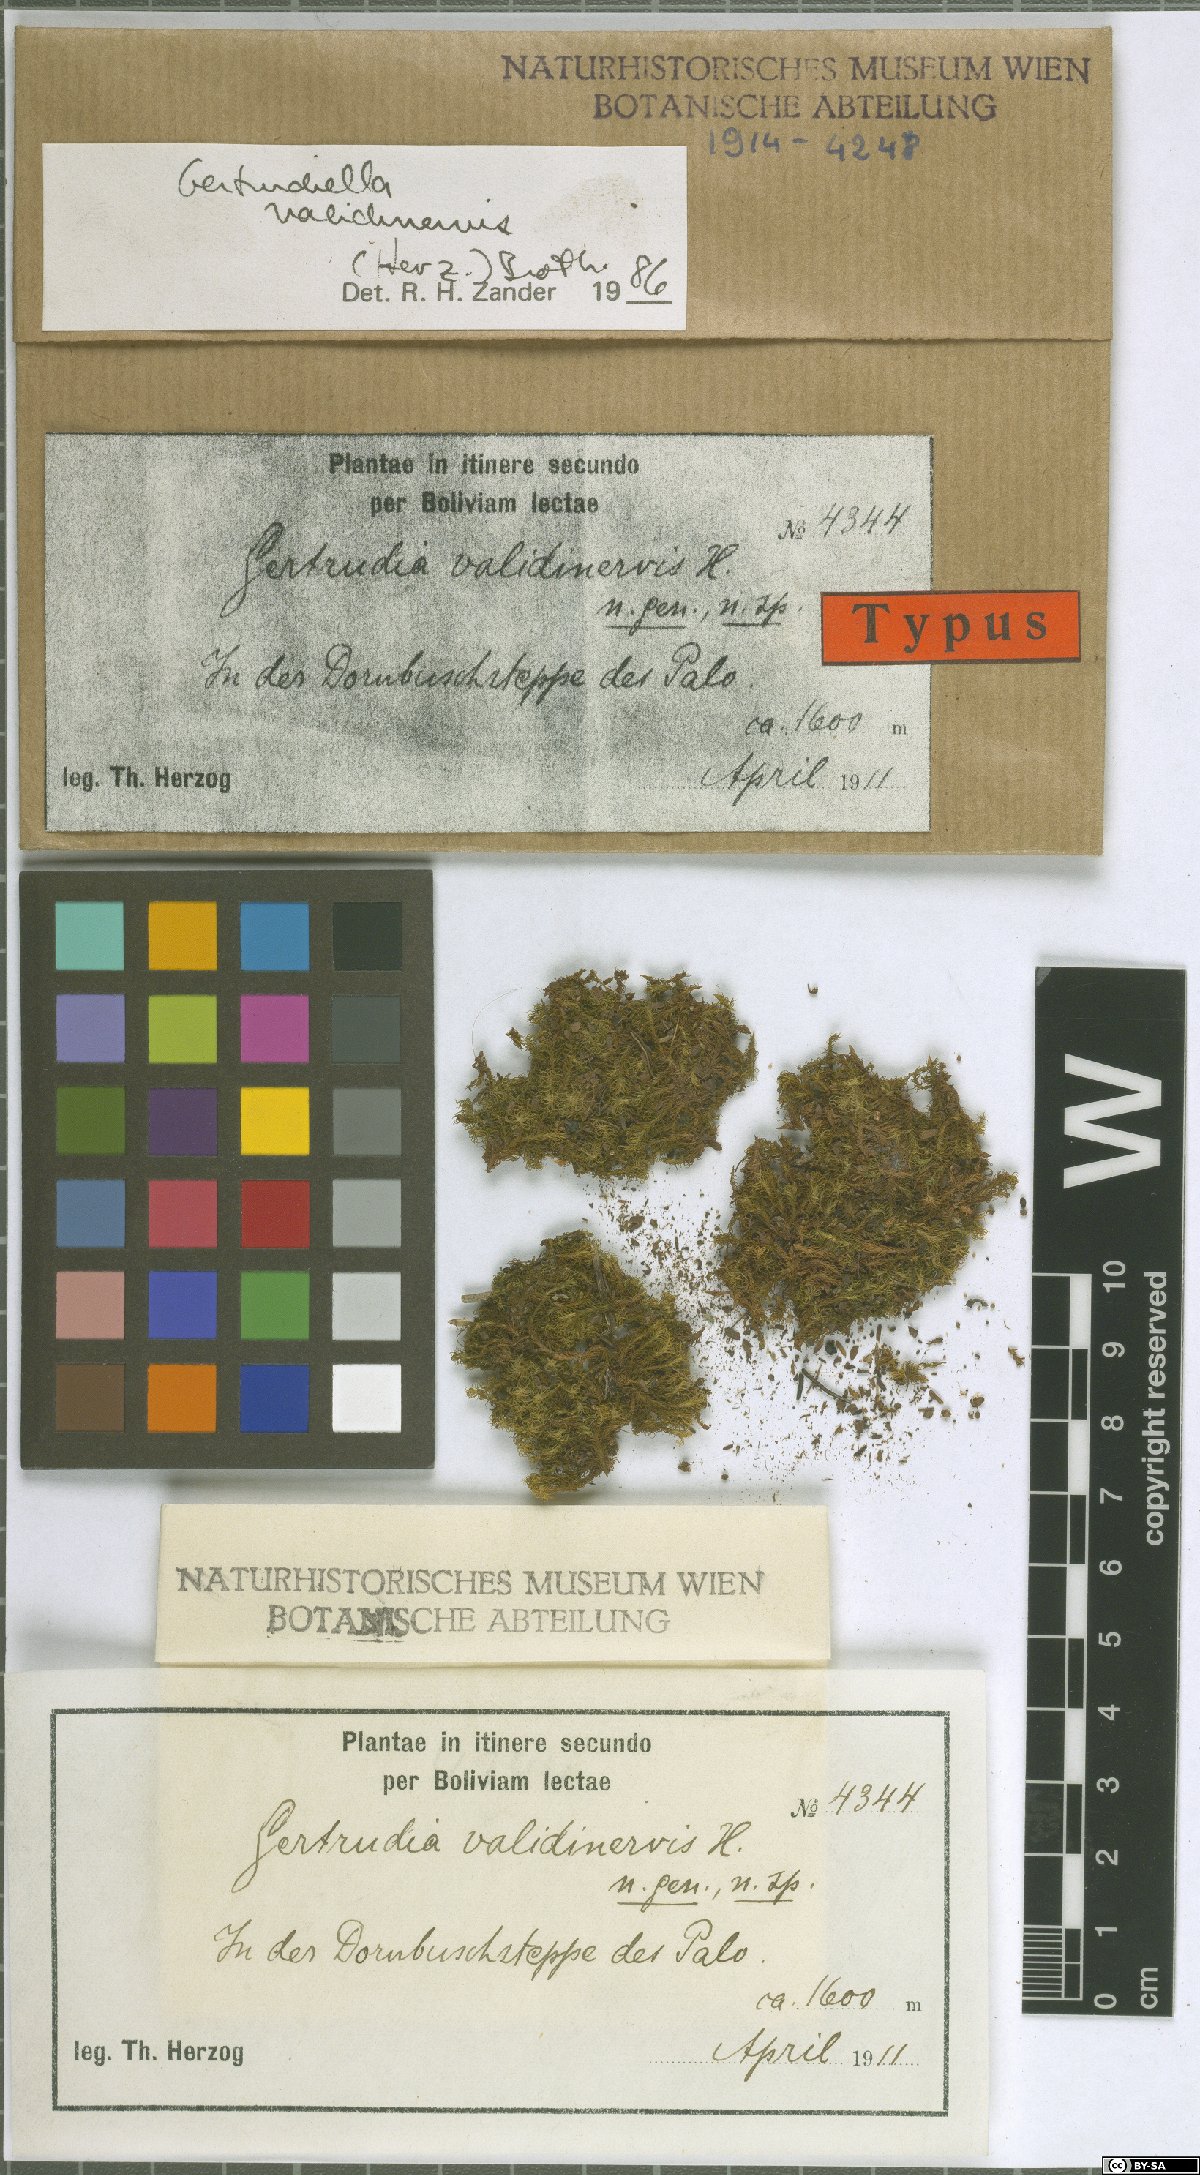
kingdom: Plantae
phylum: Bryophyta
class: Bryopsida
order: Pottiales
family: Pottiaceae
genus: Gertrudiella
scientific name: Gertrudiella uncinicoma
